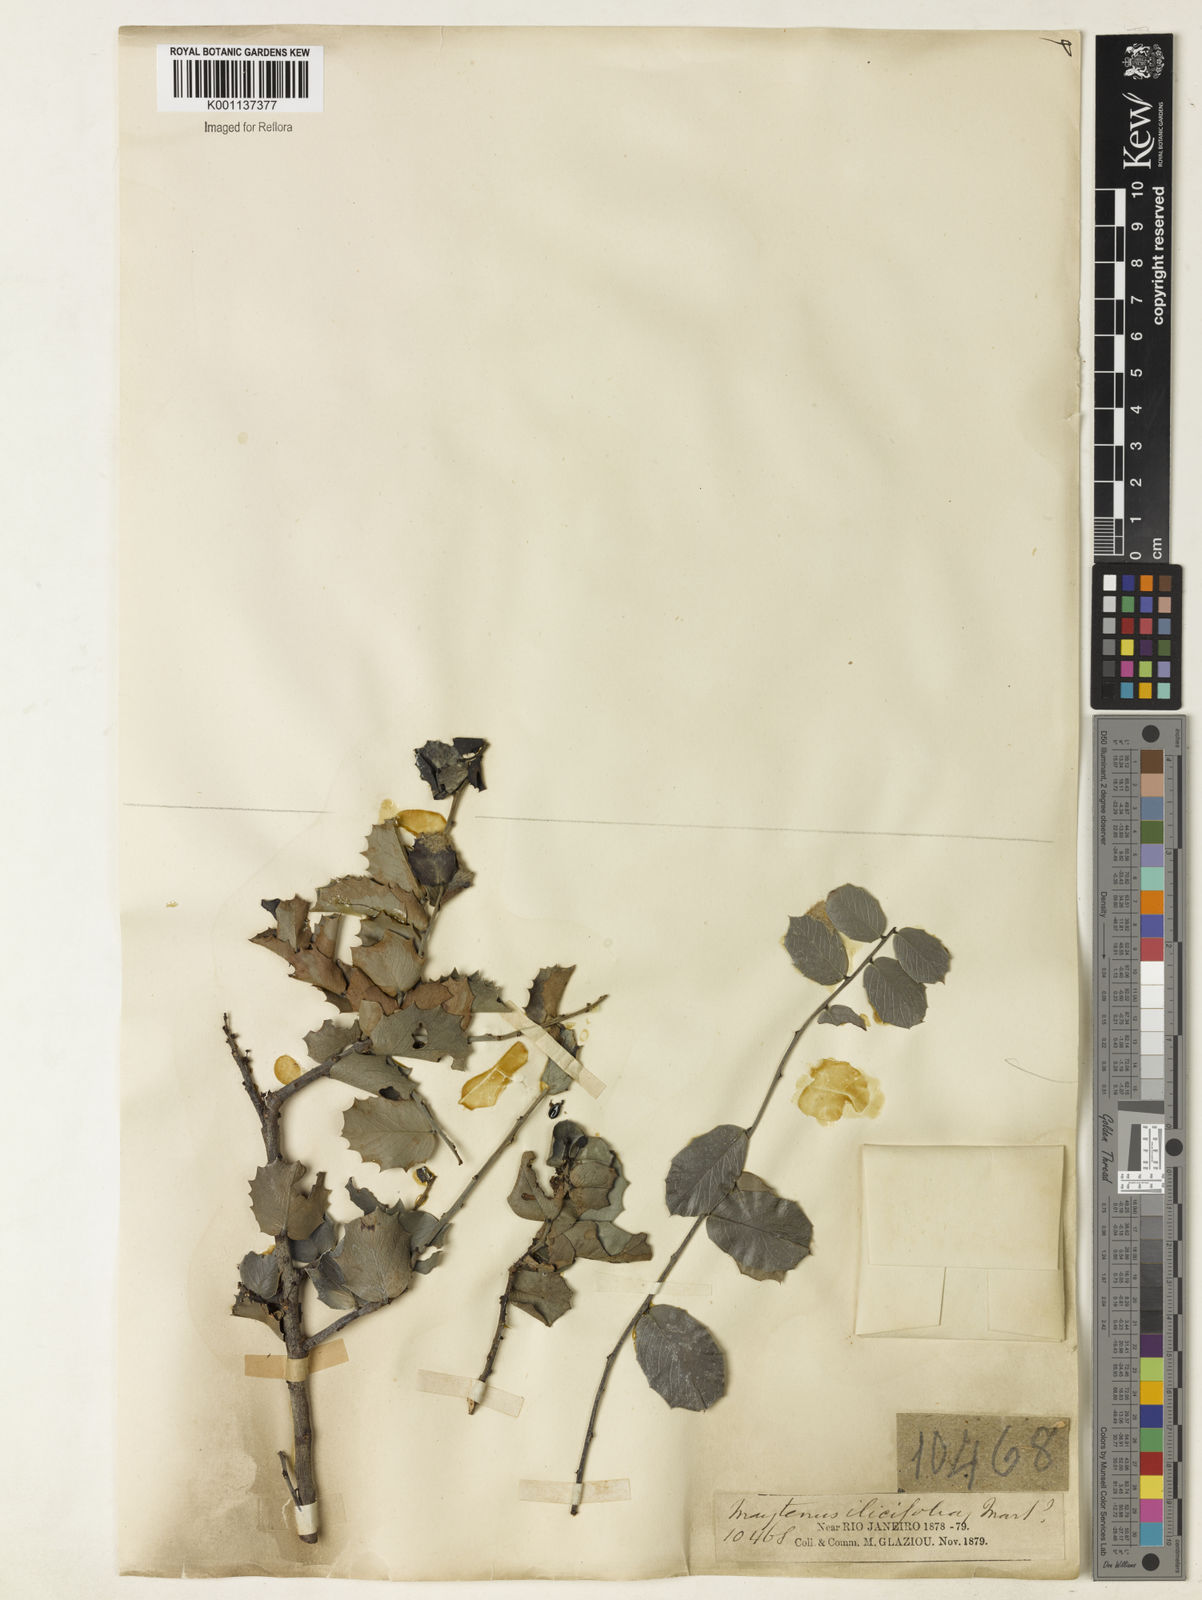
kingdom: Plantae
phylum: Tracheophyta
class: Magnoliopsida
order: Celastrales
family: Celastraceae
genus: Monteverdia
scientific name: Monteverdia rigida
